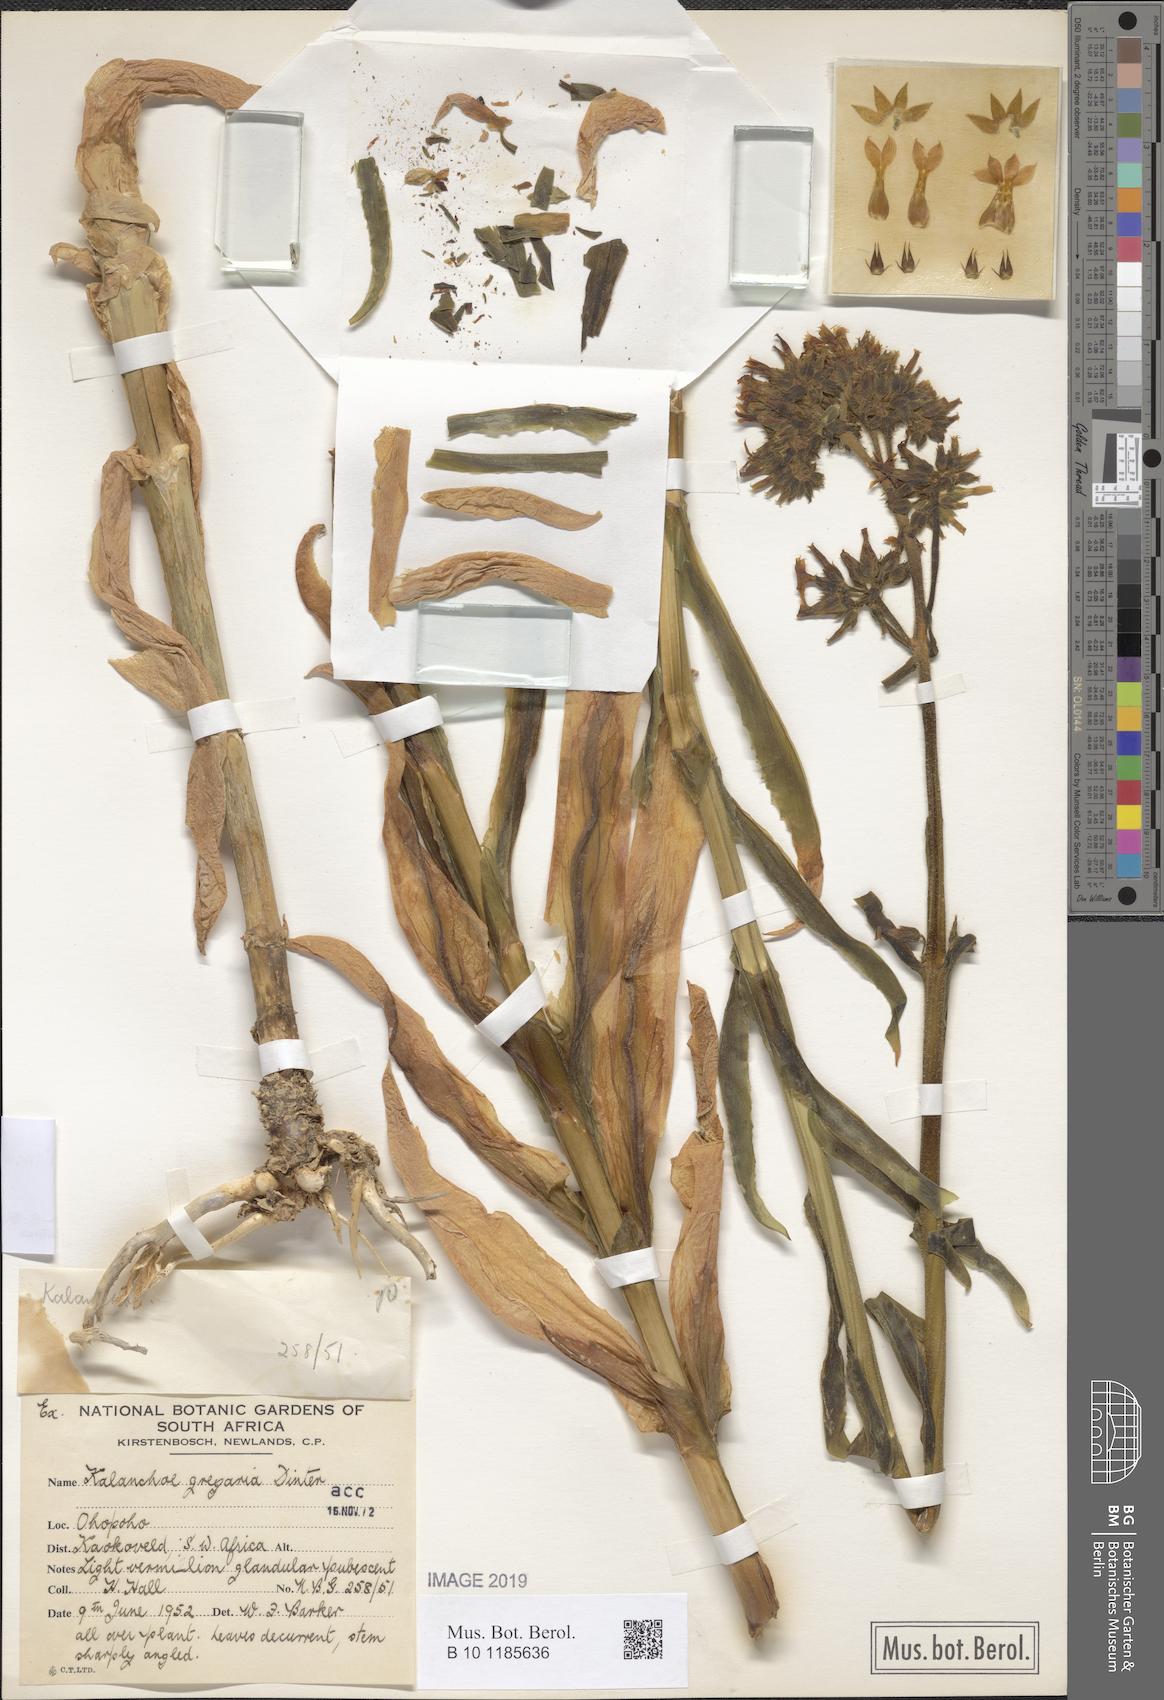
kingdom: Plantae
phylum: Tracheophyta
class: Magnoliopsida
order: Saxifragales
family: Crassulaceae
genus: Kalanchoe
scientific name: Kalanchoe lanceolata
